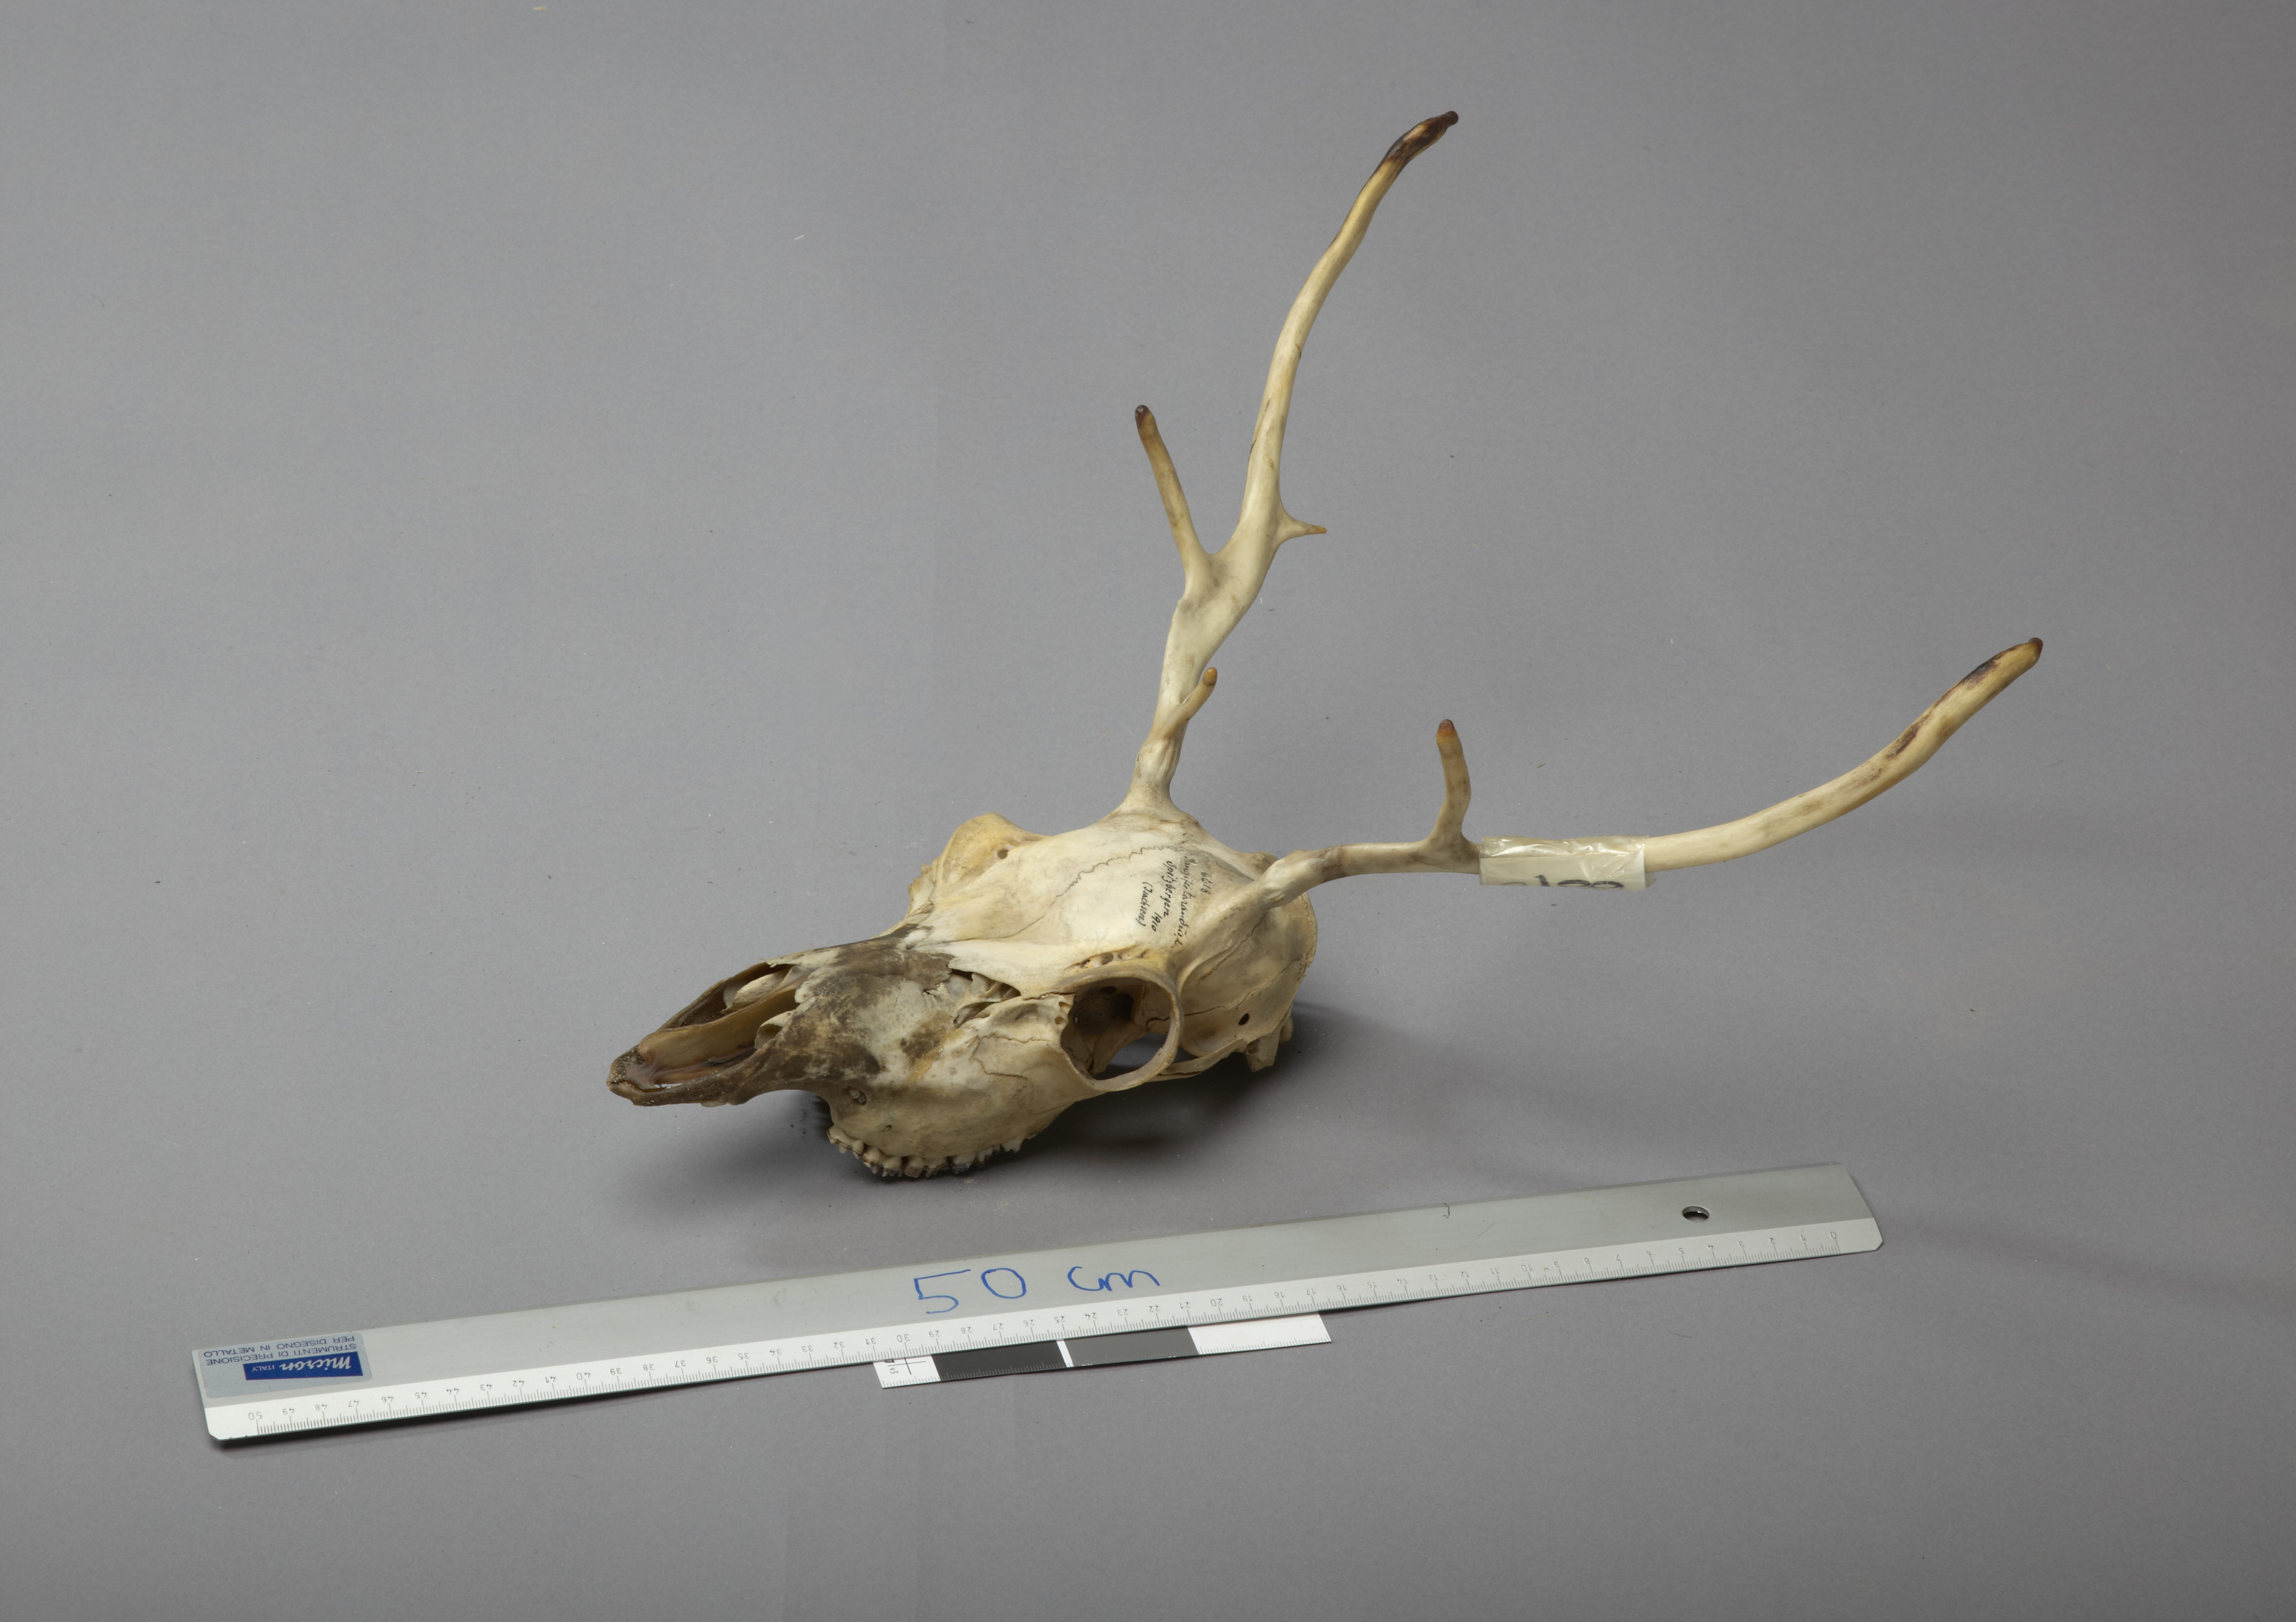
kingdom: Animalia
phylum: Chordata
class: Mammalia
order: Artiodactyla
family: Cervidae
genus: Rangifer
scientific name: Rangifer tarandus
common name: Reindeer
